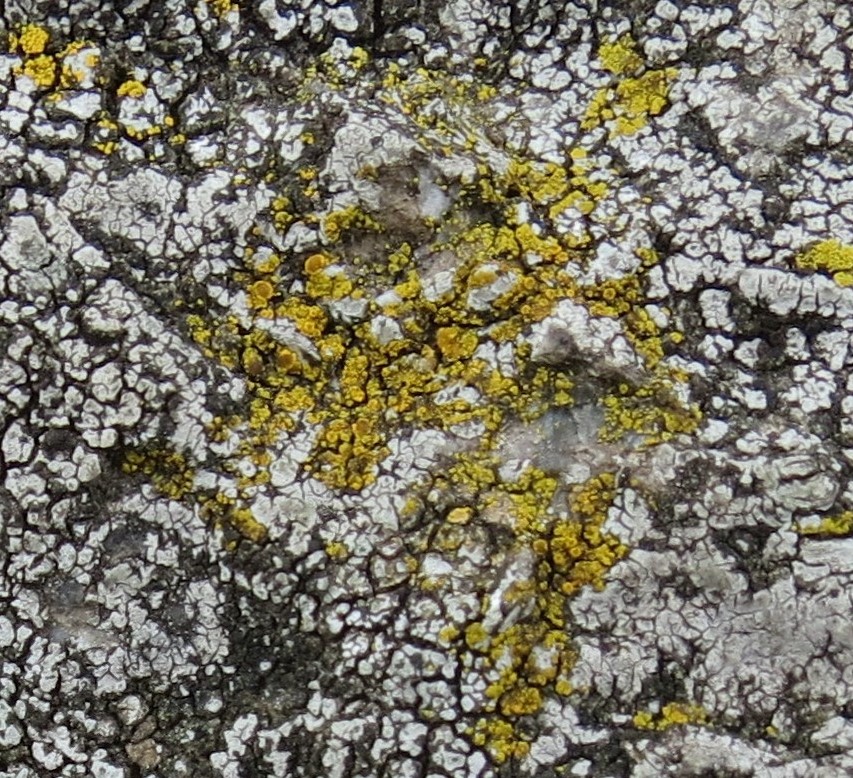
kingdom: Fungi
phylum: Ascomycota
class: Candelariomycetes
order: Candelariales
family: Candelariaceae
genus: Candelariella
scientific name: Candelariella vitellina
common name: almindelig æggeblommelav
